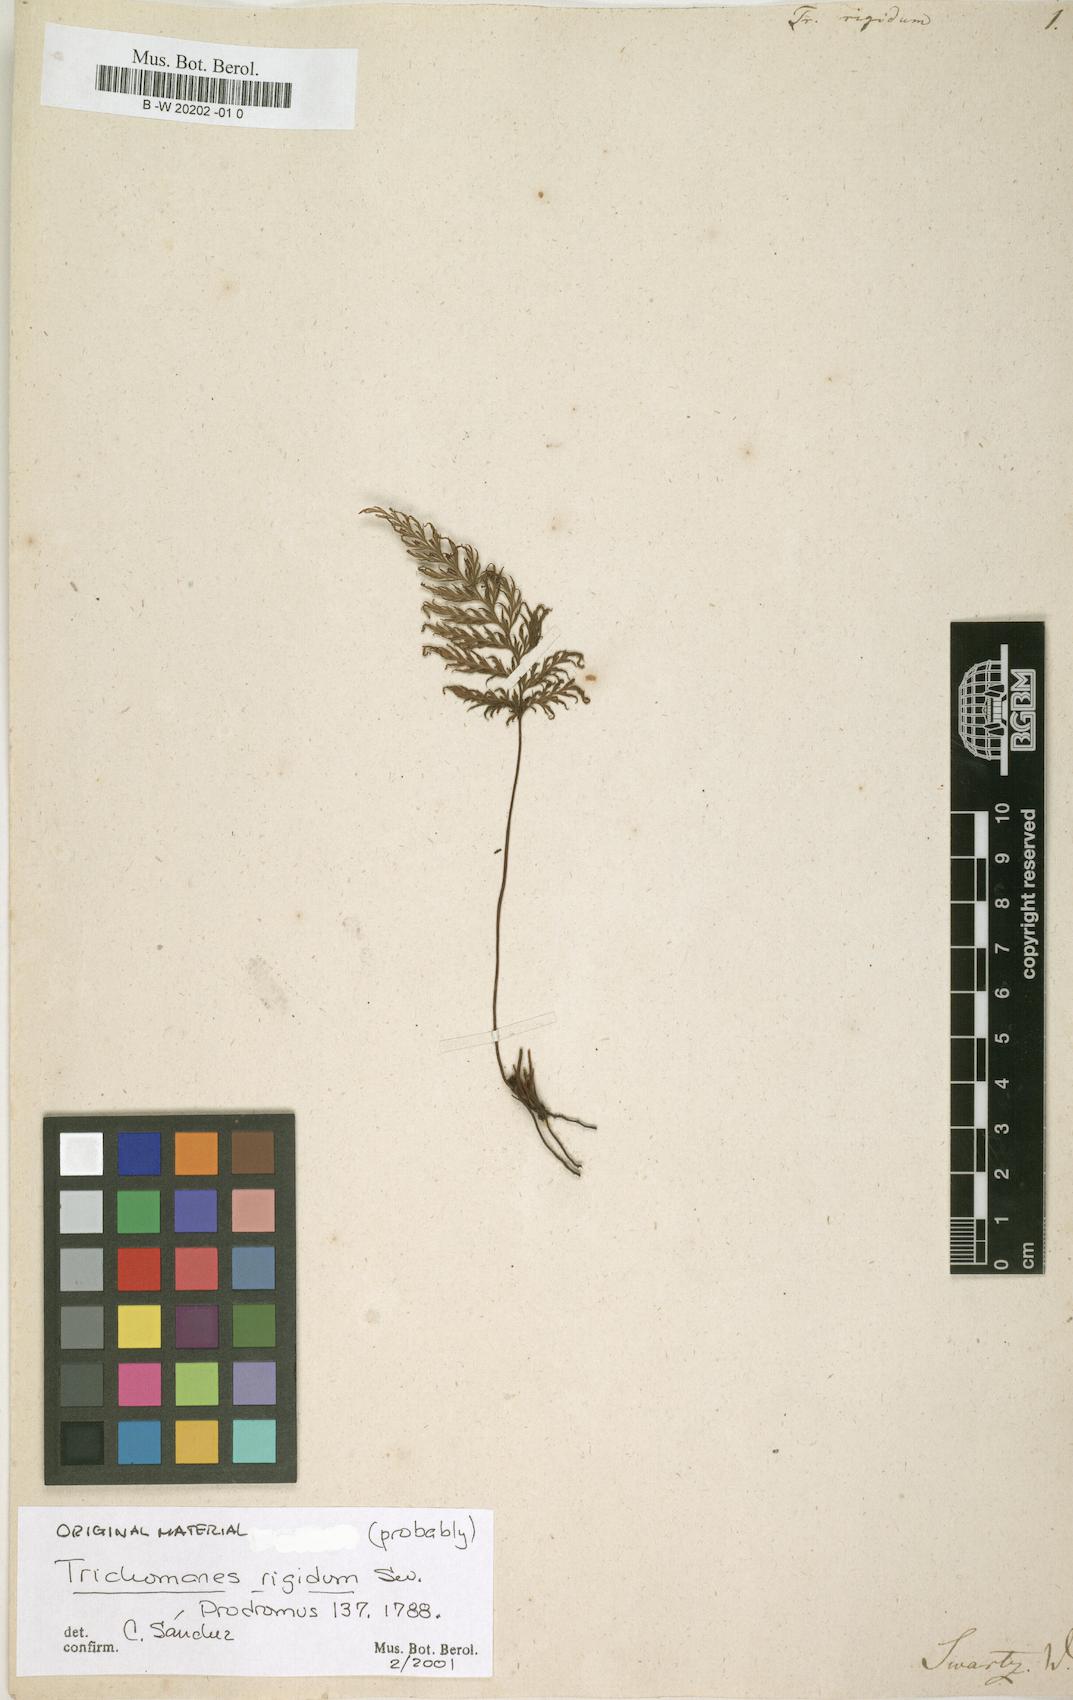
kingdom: Plantae
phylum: Tracheophyta
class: Polypodiopsida
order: Hymenophyllales
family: Hymenophyllaceae
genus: Abrodictyum
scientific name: Abrodictyum rigidum
